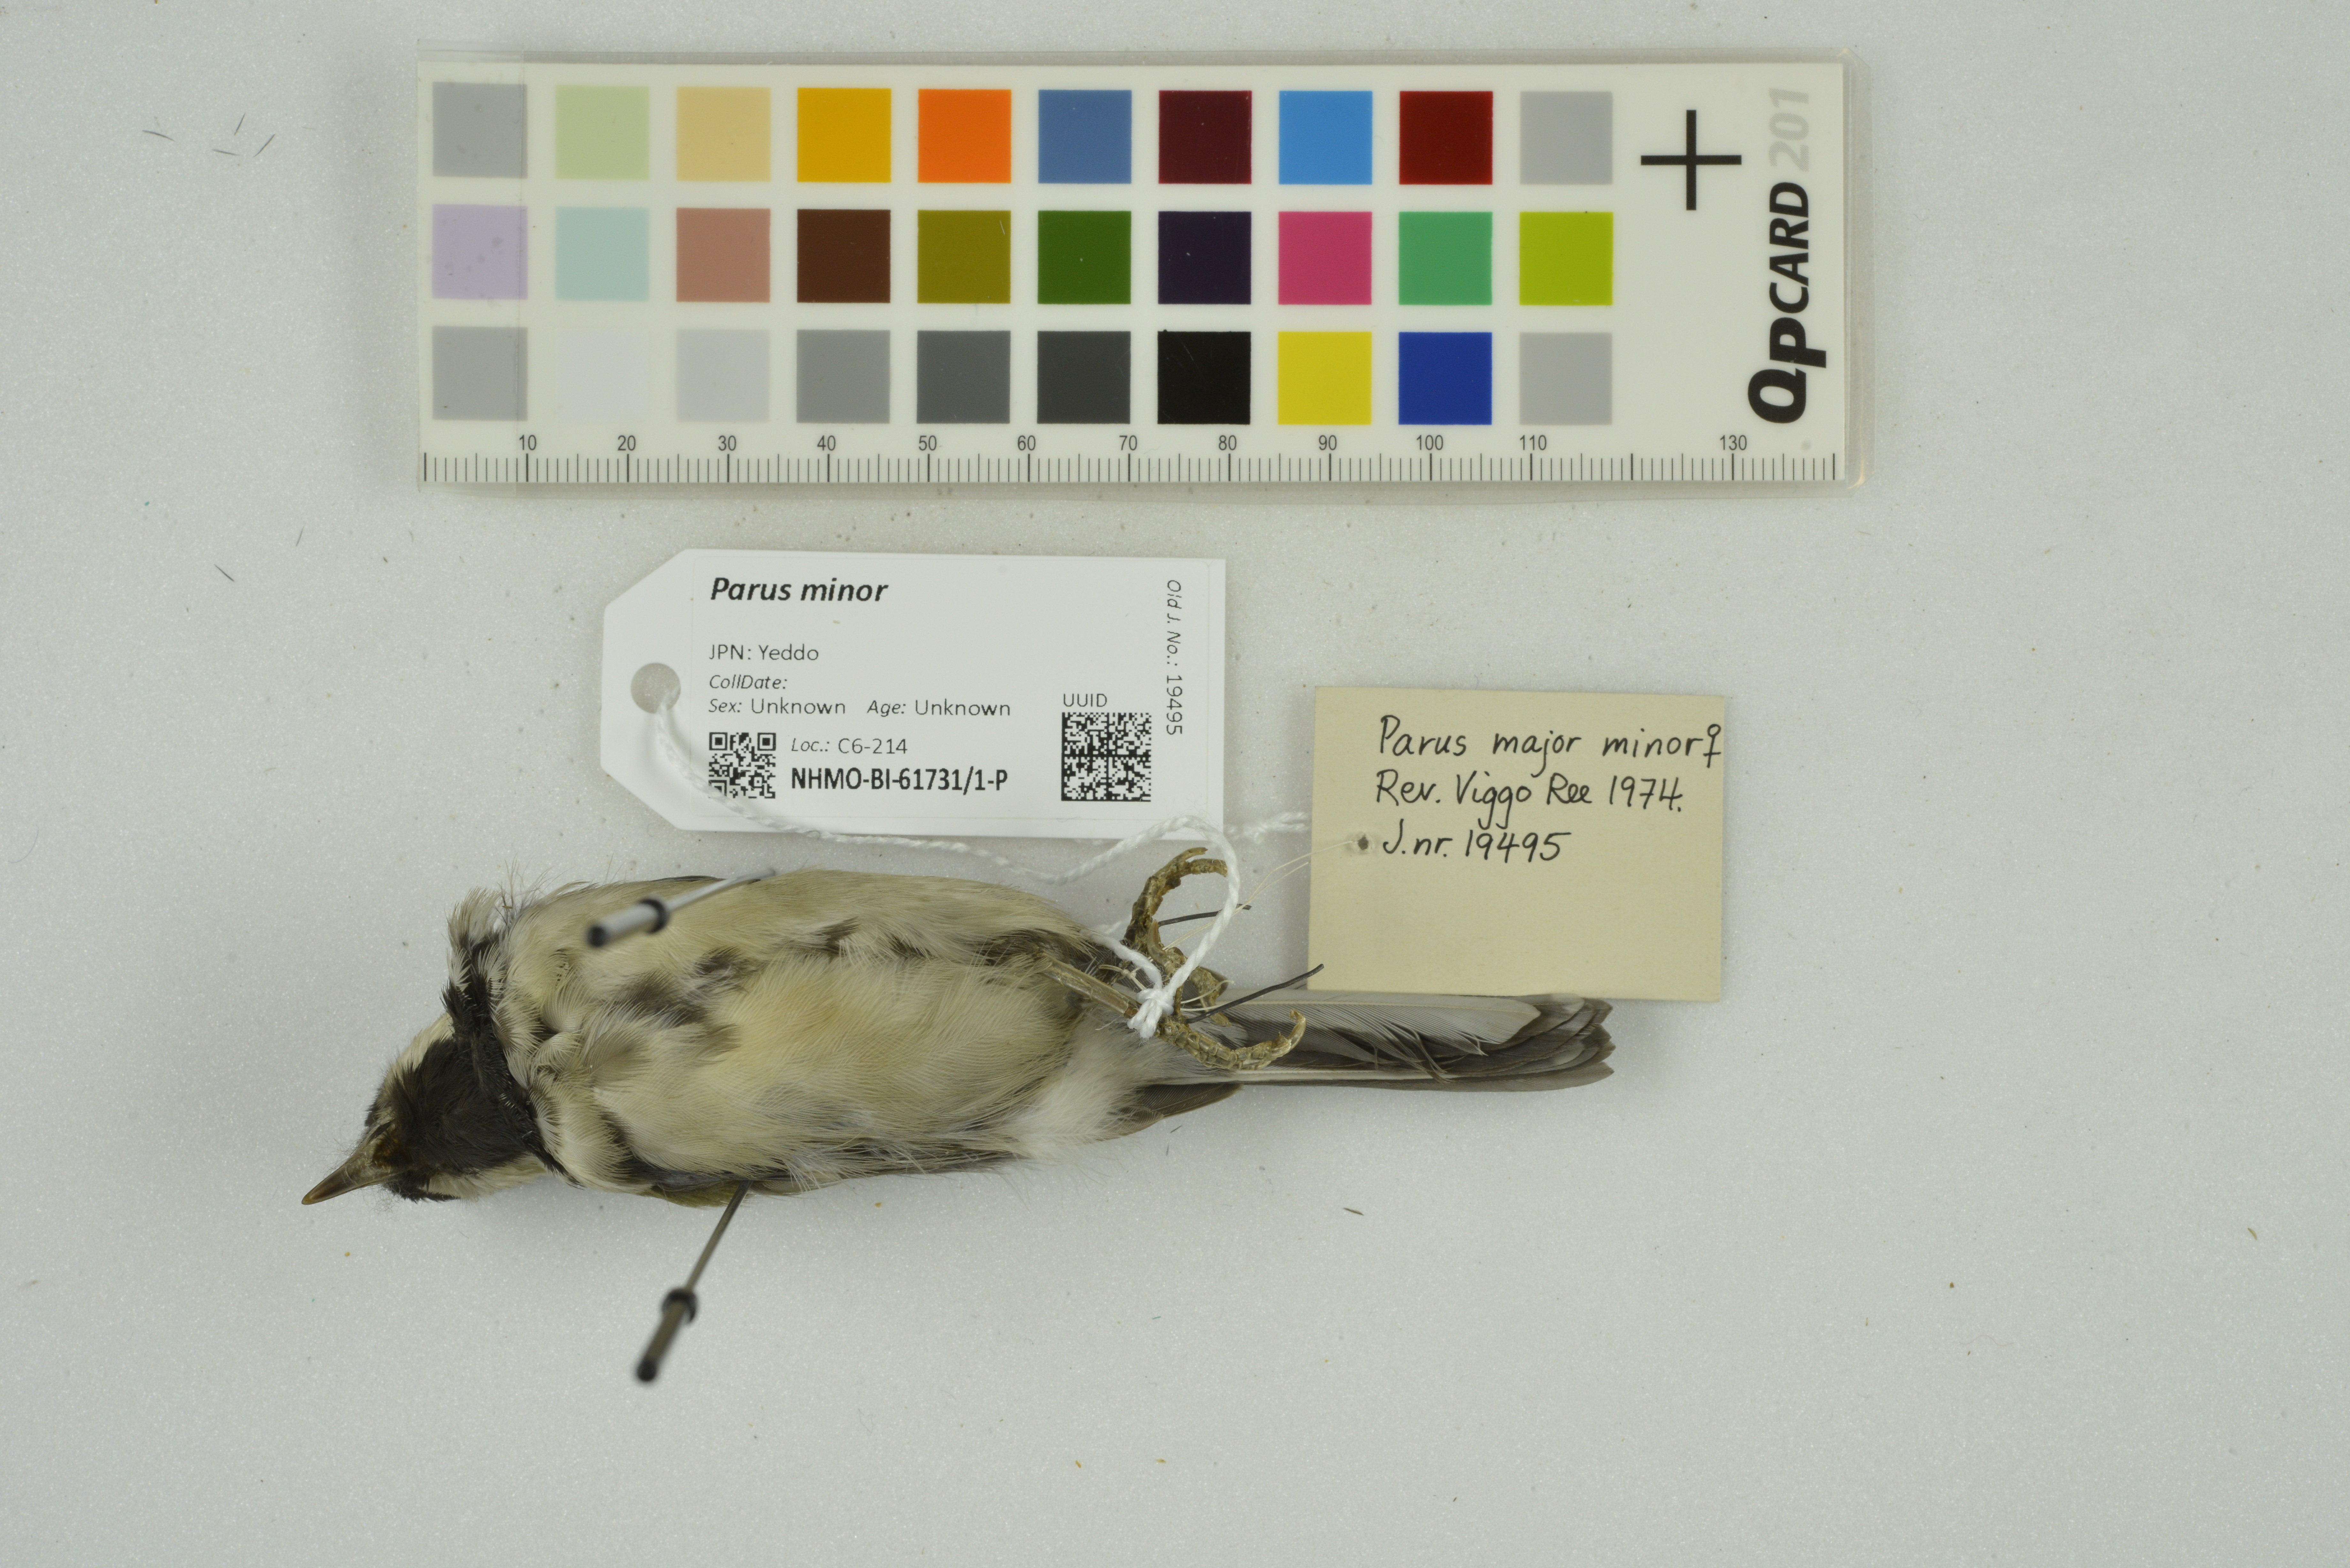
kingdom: Animalia
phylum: Chordata
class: Aves
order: Passeriformes
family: Paridae
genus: Parus
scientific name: Parus minor
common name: Japanese tit
